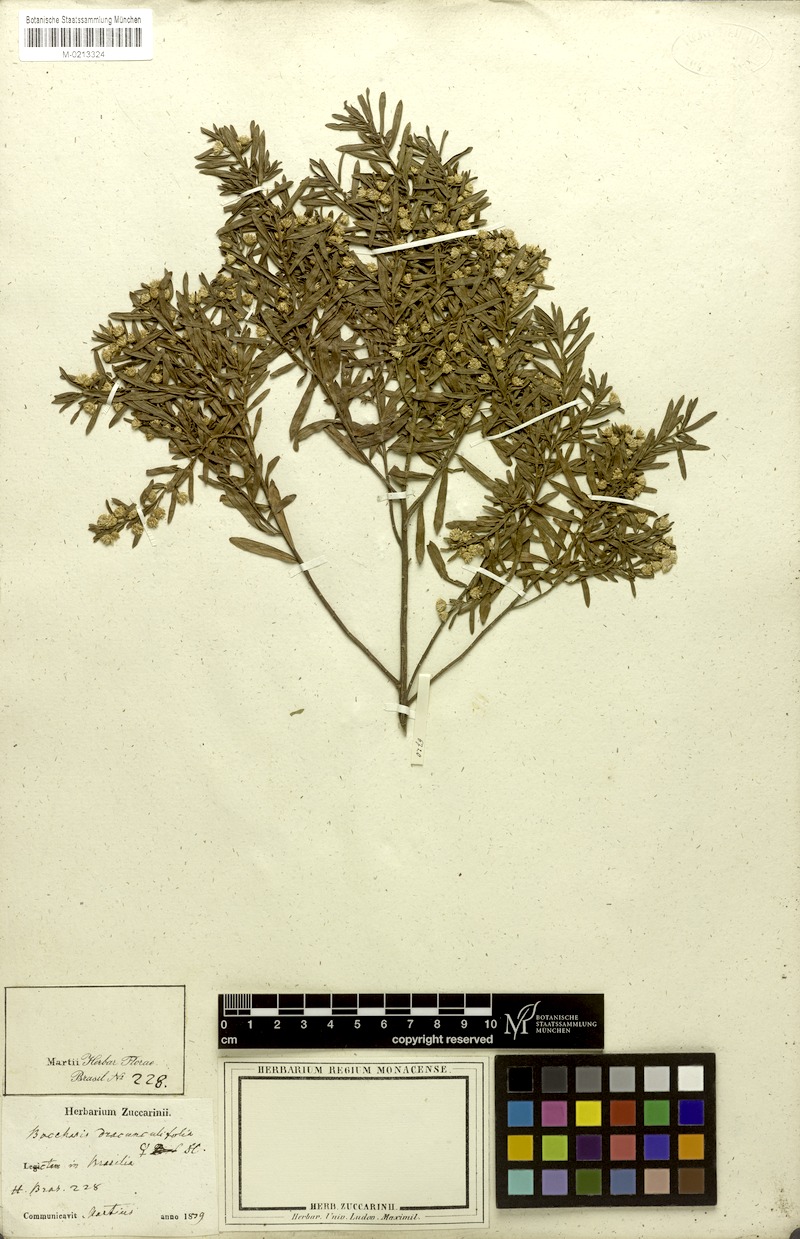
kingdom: Plantae
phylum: Tracheophyta
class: Magnoliopsida
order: Asterales
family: Asteraceae
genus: Baccharis
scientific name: Baccharis dracunculifolia
